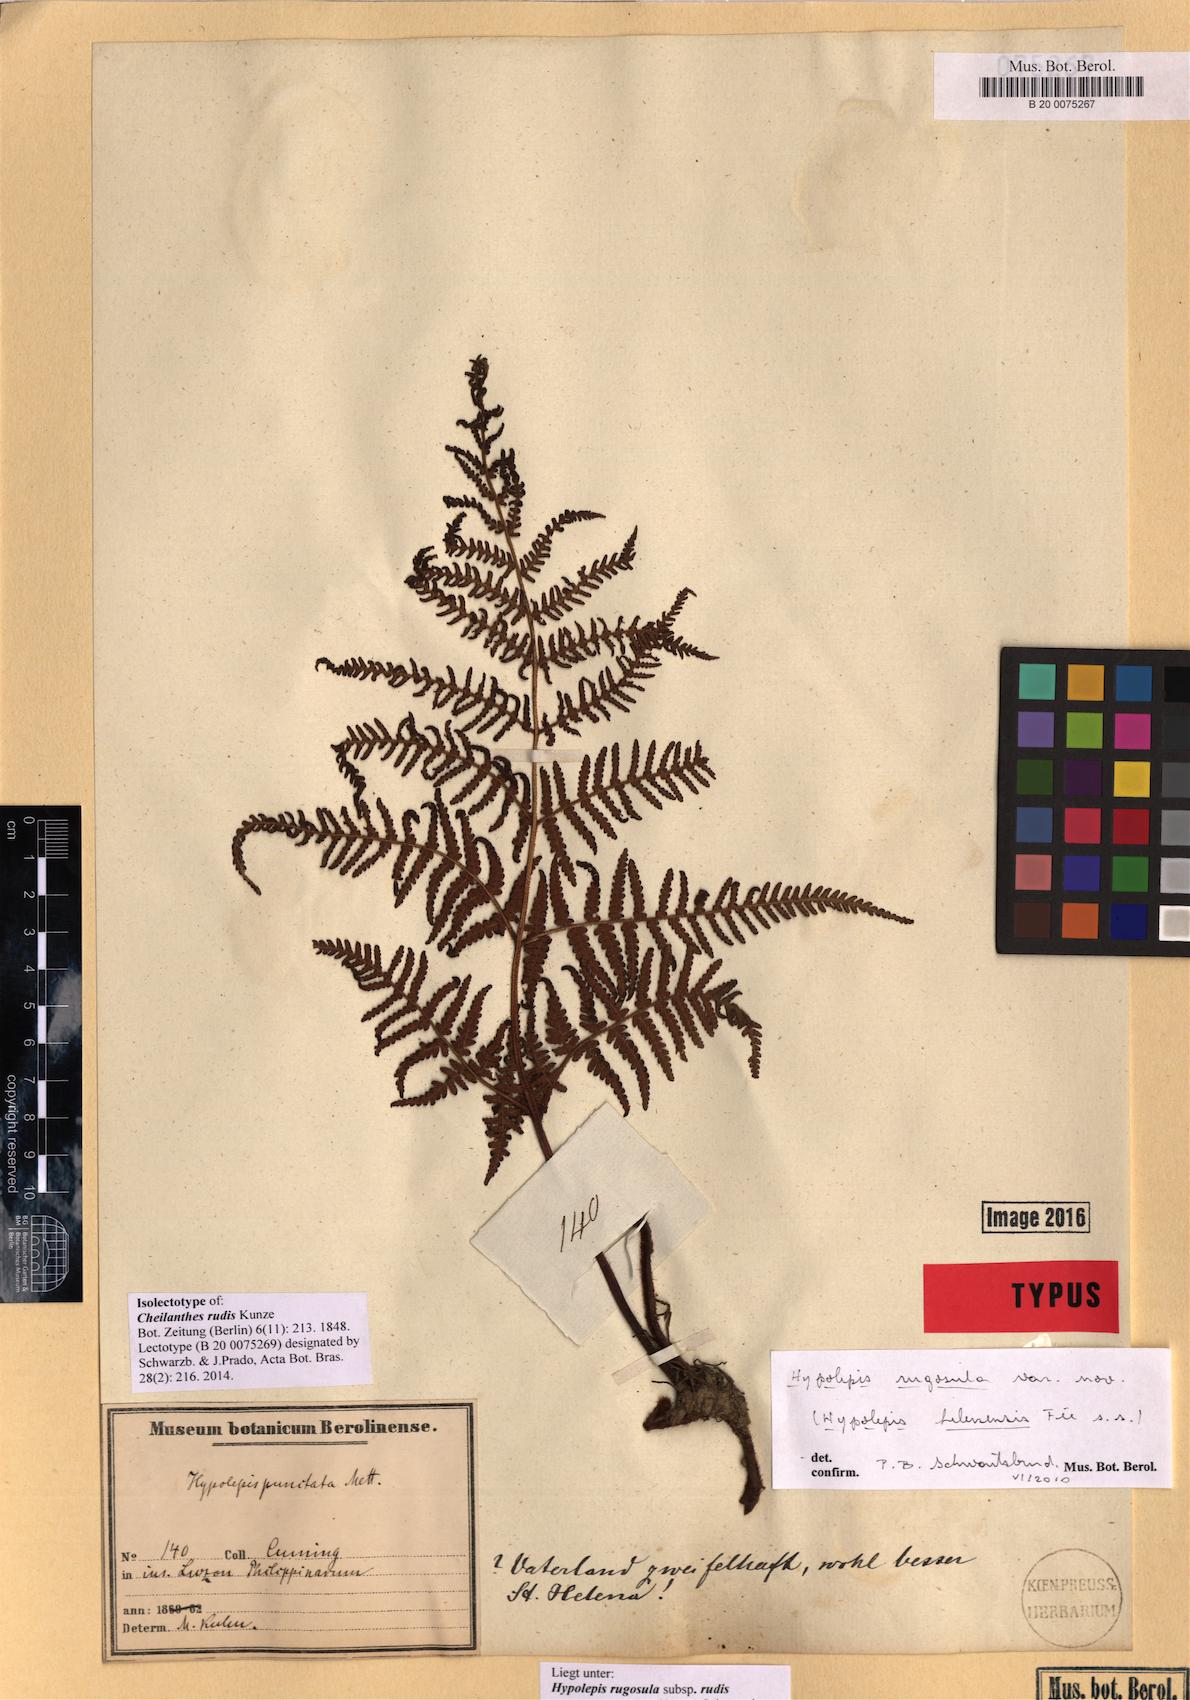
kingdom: Plantae
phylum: Tracheophyta
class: Polypodiopsida
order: Polypodiales
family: Dennstaedtiaceae
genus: Hypolepis
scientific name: Hypolepis rugosula
